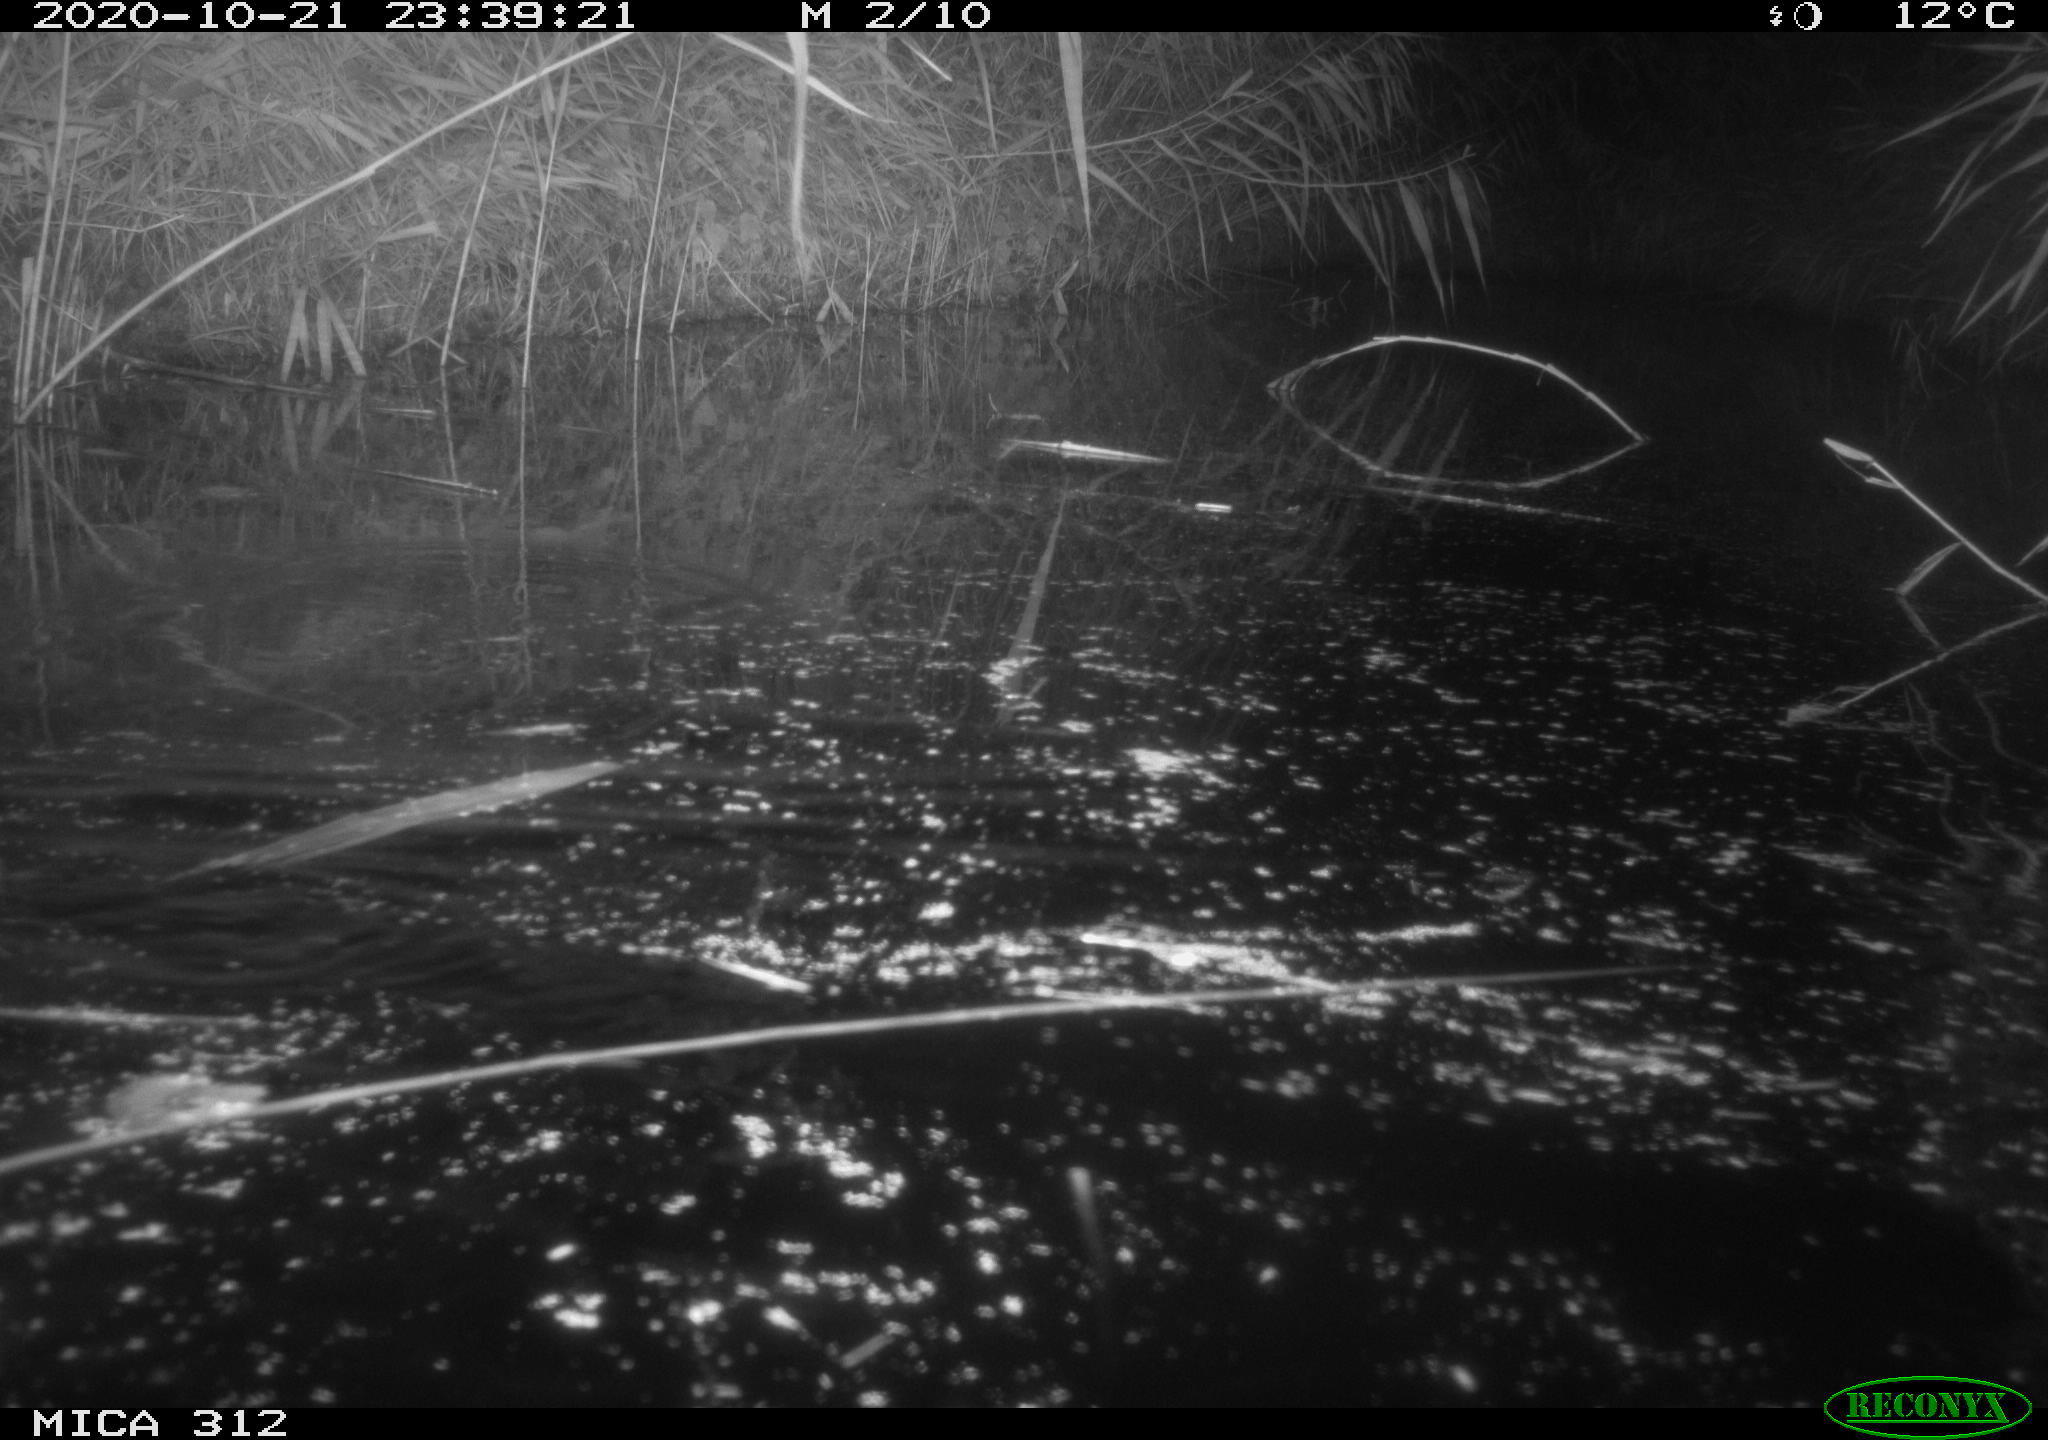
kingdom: Animalia
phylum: Chordata
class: Mammalia
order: Rodentia
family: Muridae
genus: Rattus
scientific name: Rattus norvegicus
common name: Brown rat
